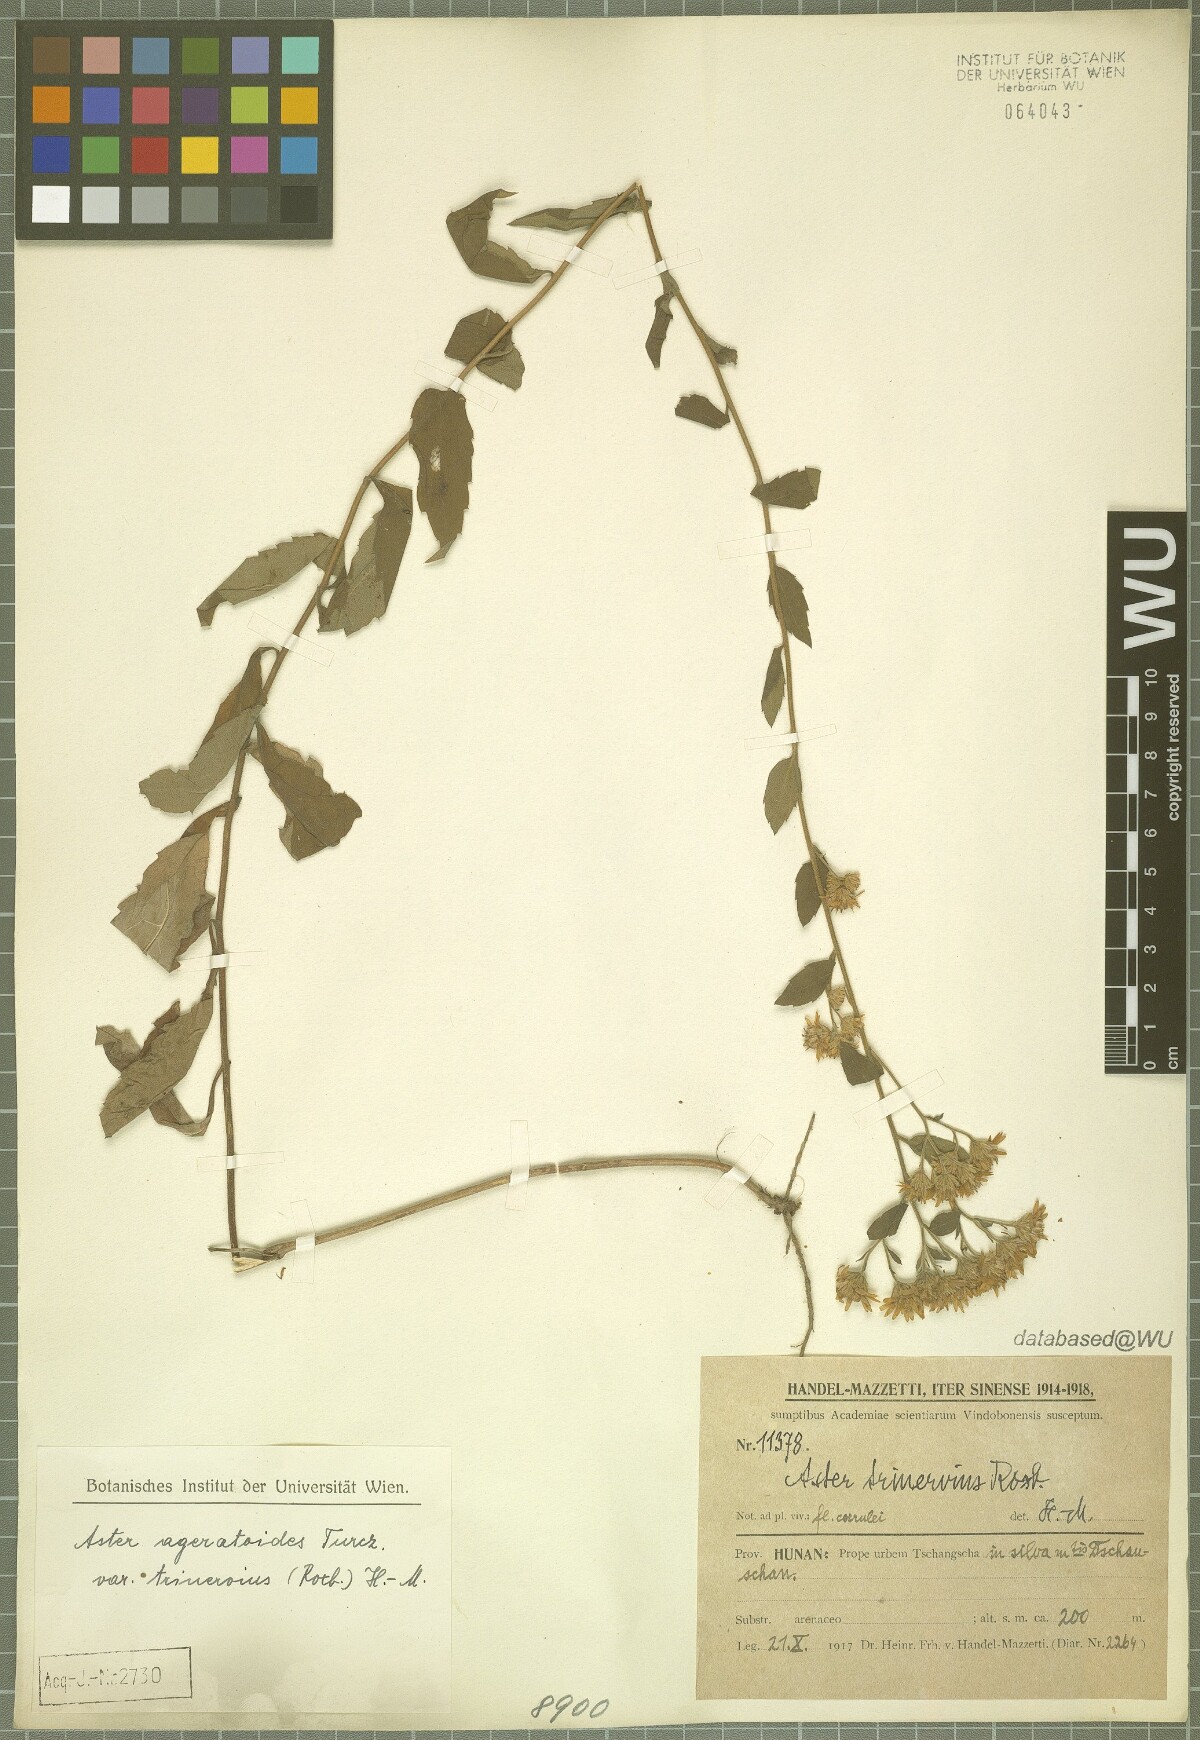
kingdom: Plantae
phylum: Tracheophyta
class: Magnoliopsida
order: Asterales
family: Asteraceae
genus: Aster
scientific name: Aster ageratoides
